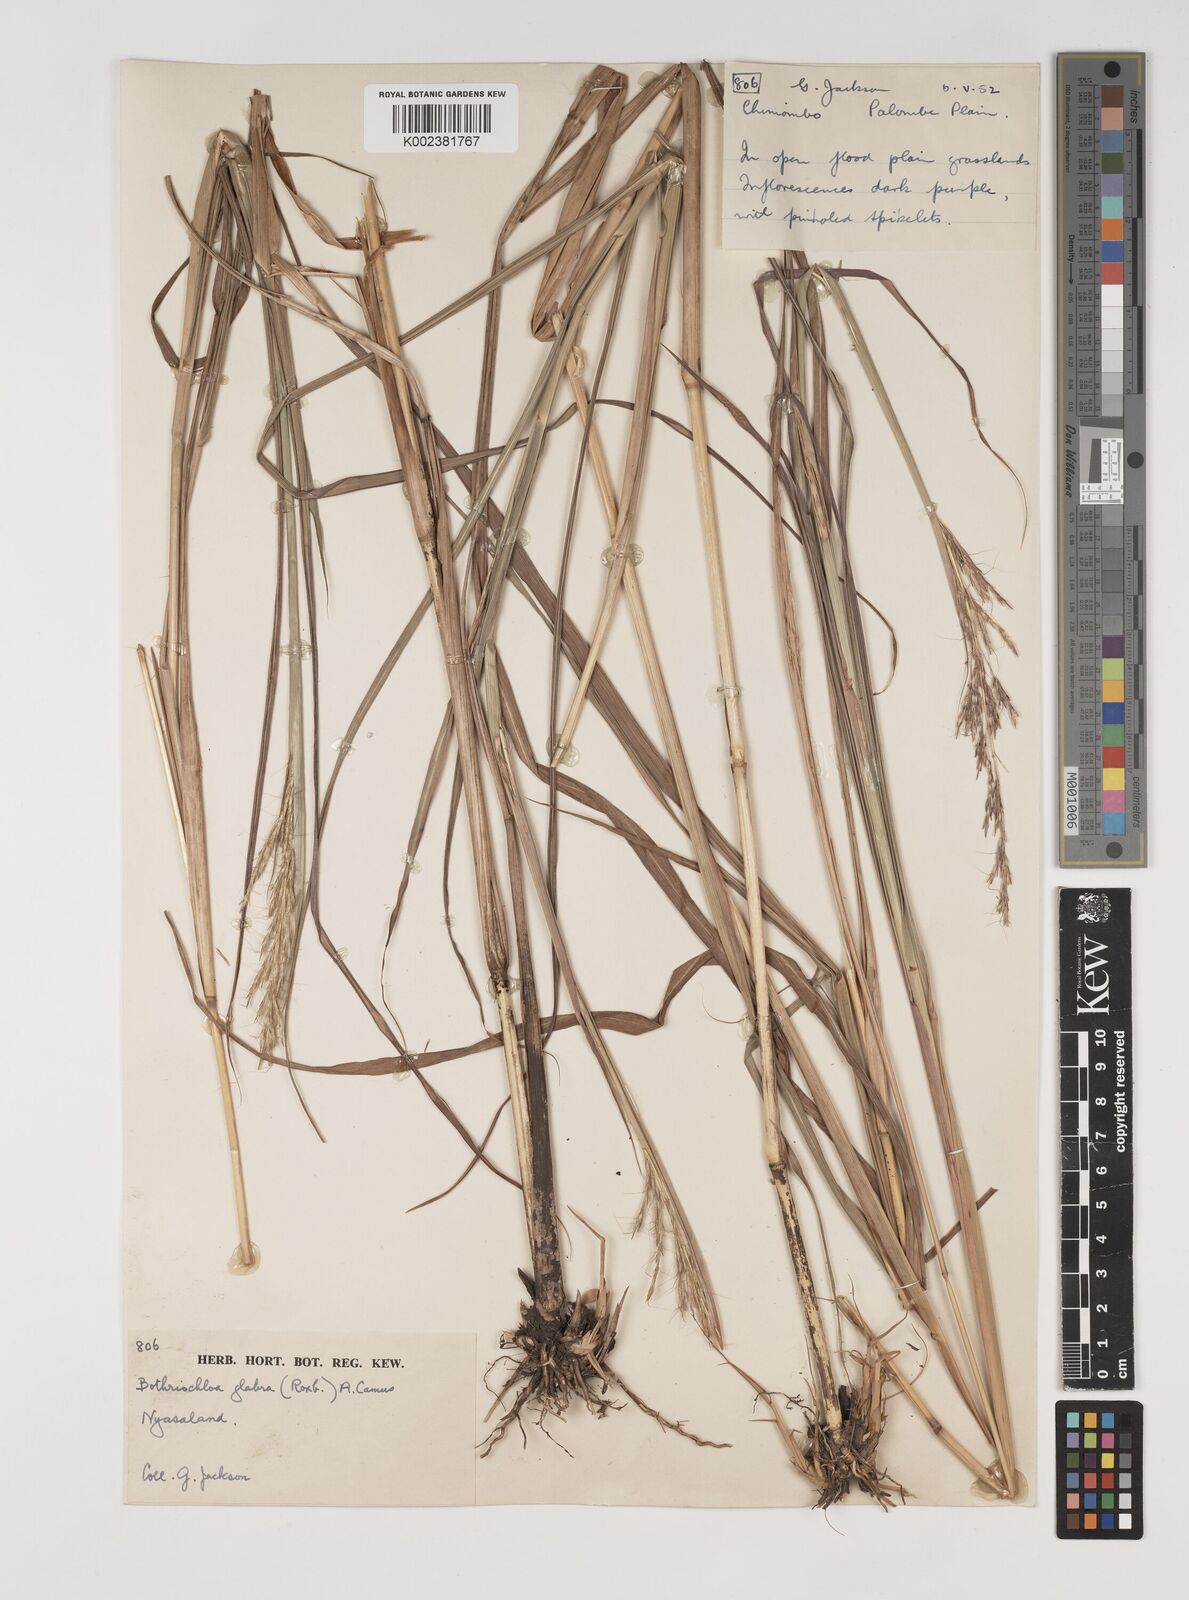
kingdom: Plantae
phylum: Tracheophyta
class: Liliopsida
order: Poales
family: Poaceae
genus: Bothriochloa
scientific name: Bothriochloa bladhii
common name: Caucasian bluestem
